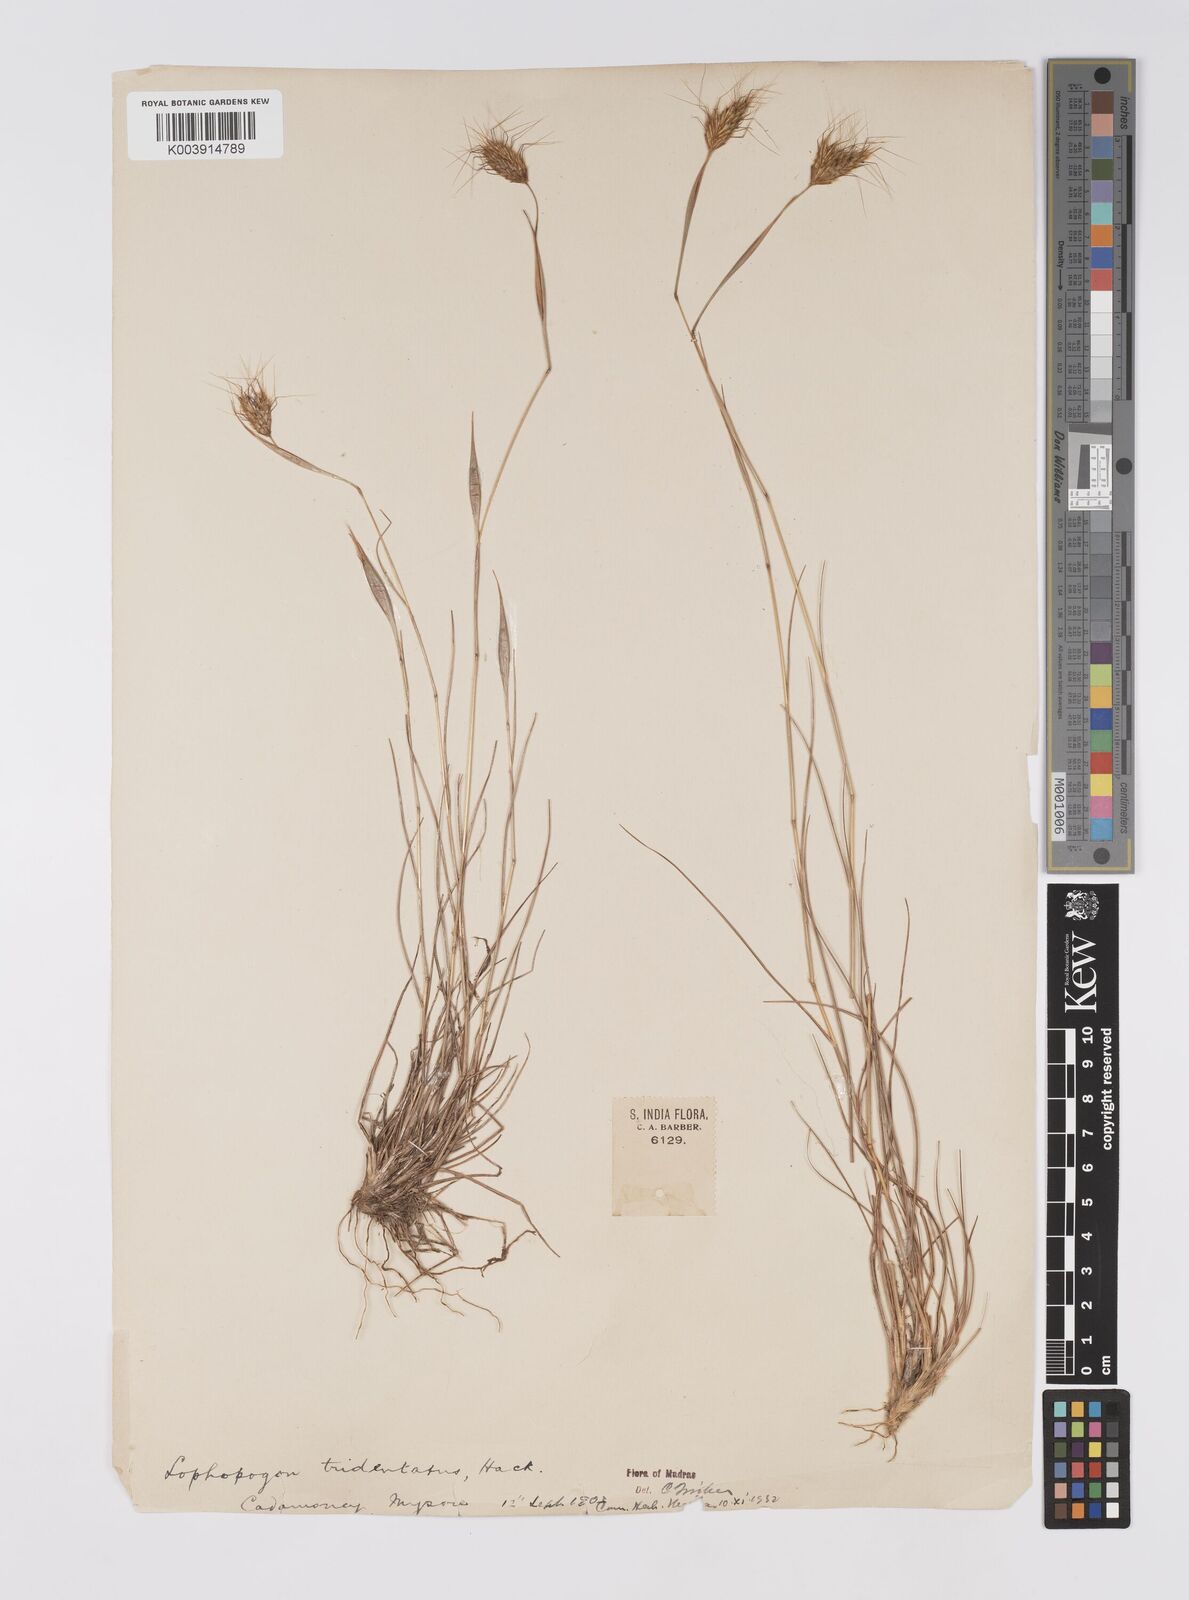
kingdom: Plantae
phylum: Tracheophyta
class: Liliopsida
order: Poales
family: Poaceae
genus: Lophopogon
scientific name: Lophopogon tridentatus
